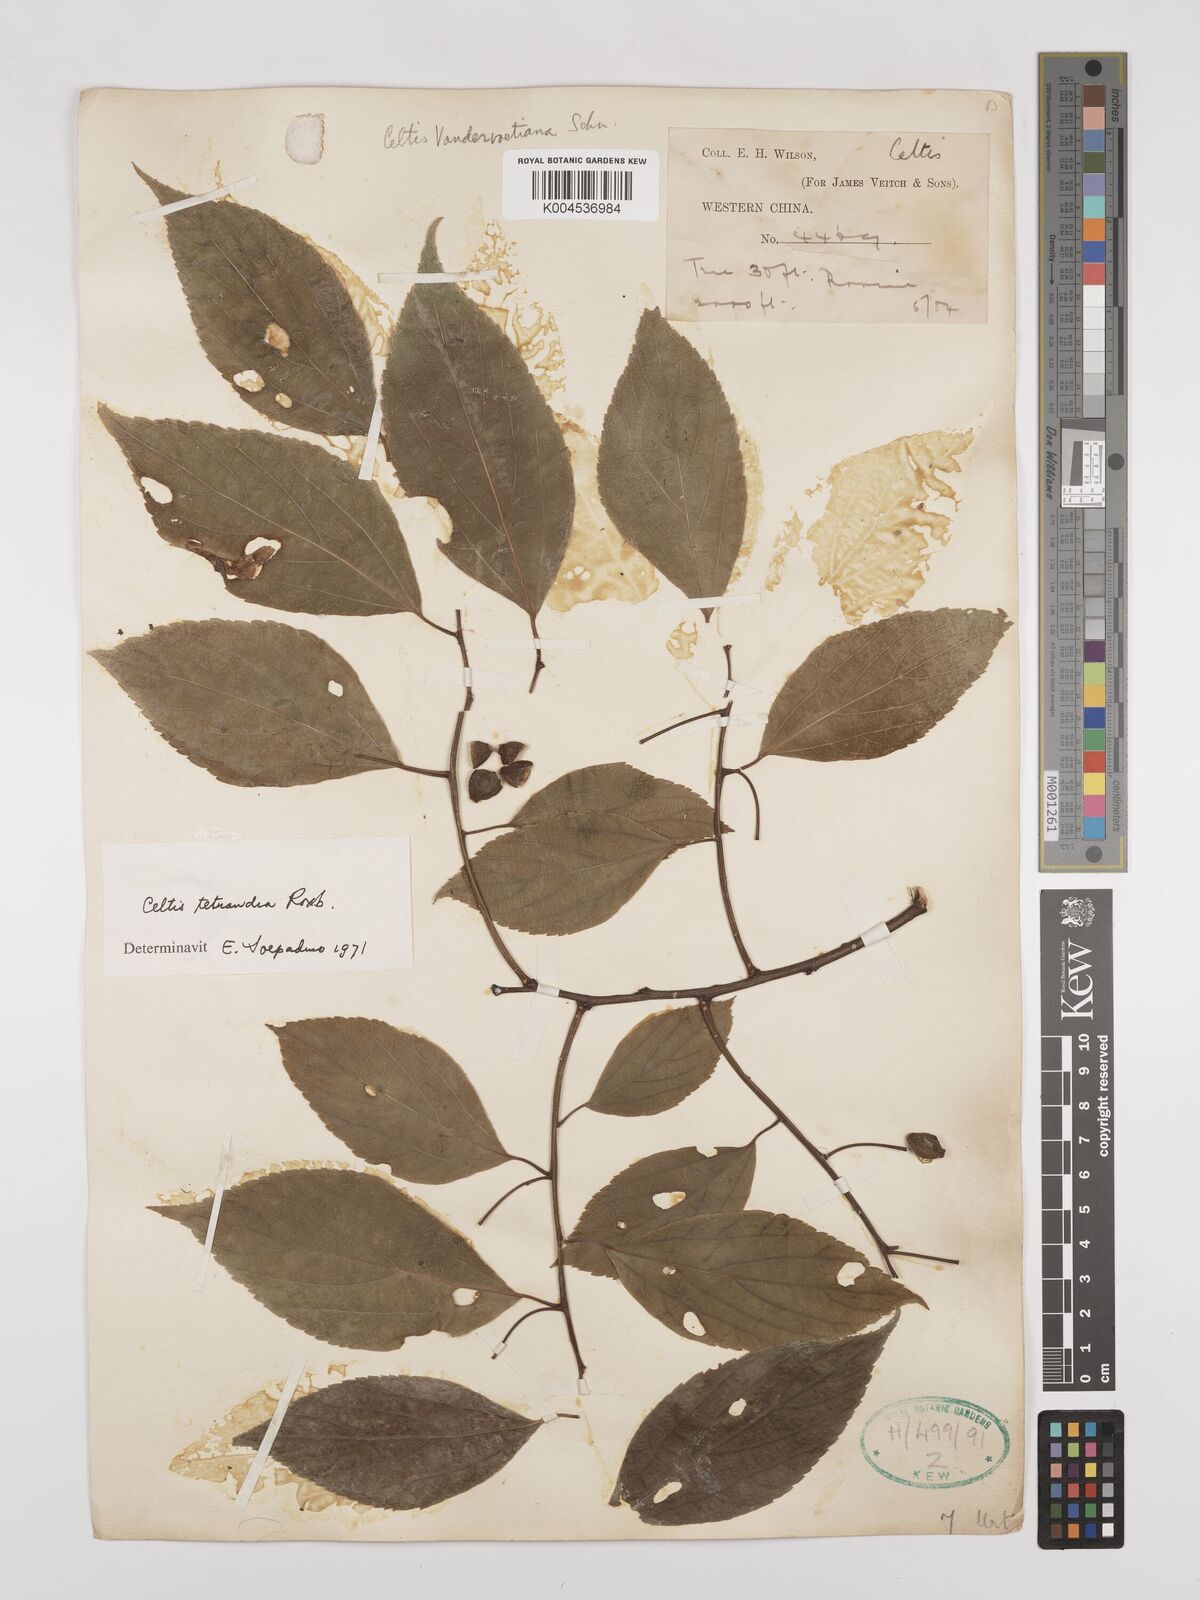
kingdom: Plantae
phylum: Tracheophyta
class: Magnoliopsida
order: Rosales
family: Cannabaceae
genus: Celtis
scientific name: Celtis tetrandra
